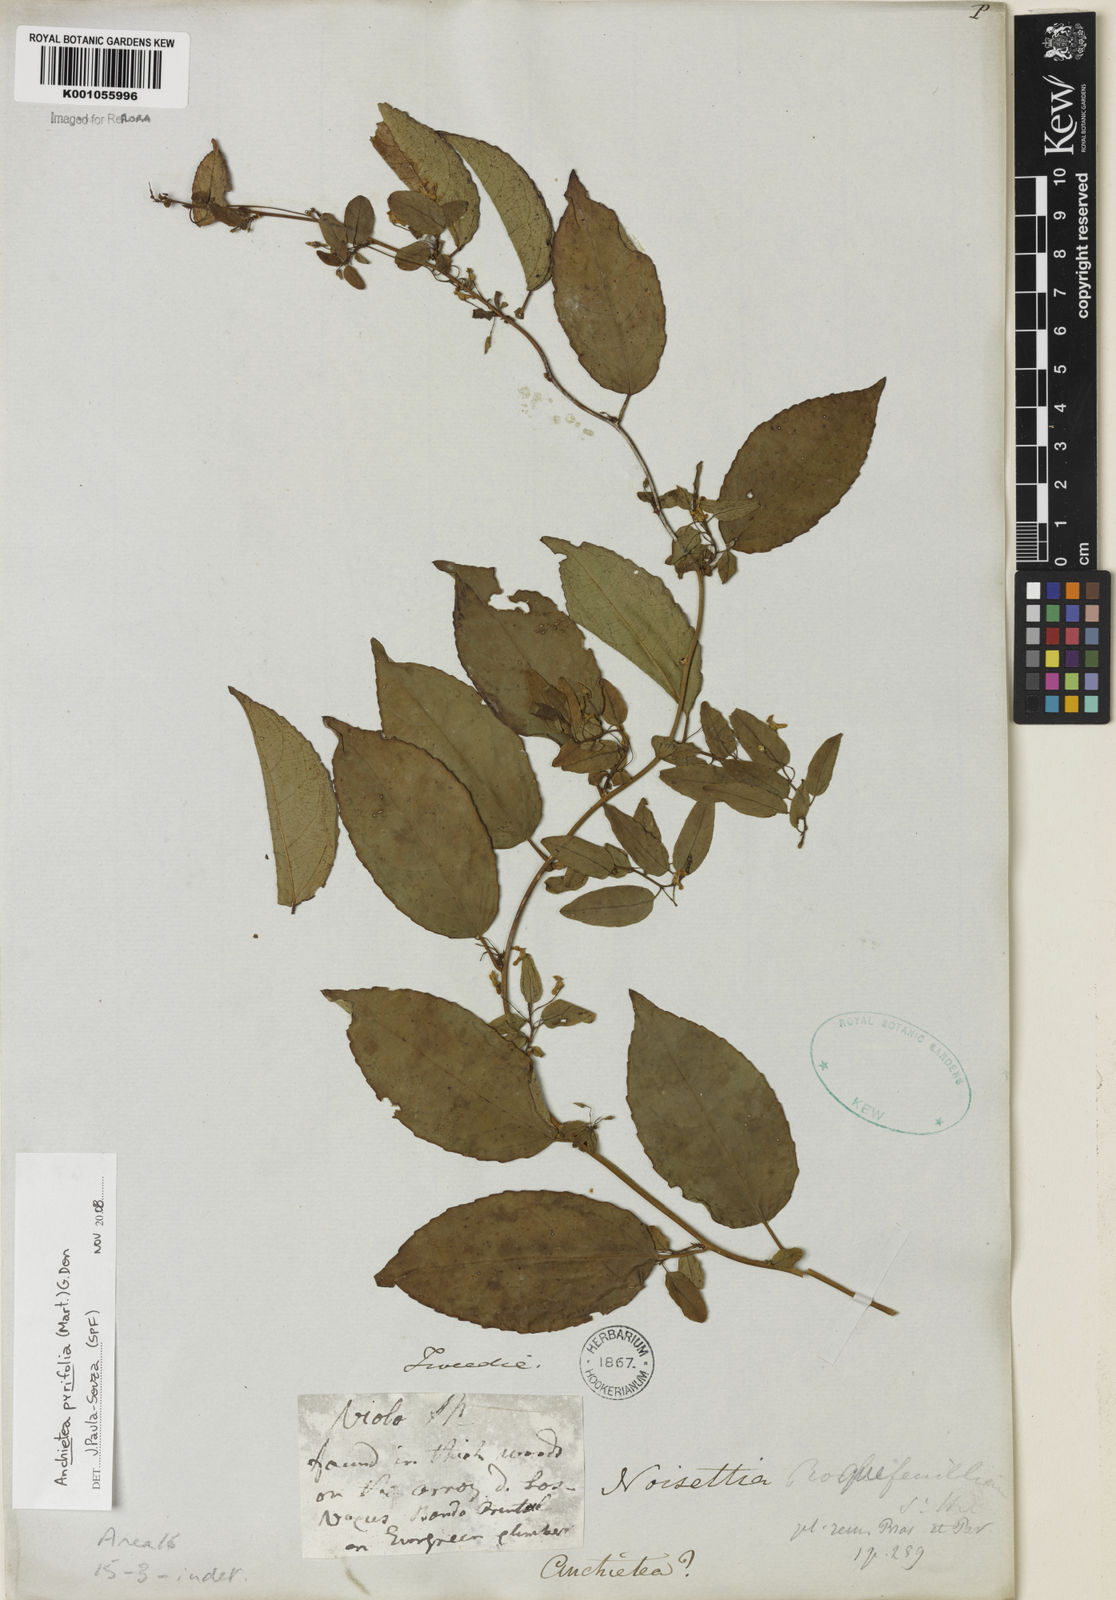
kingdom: Plantae
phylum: Tracheophyta
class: Magnoliopsida
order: Malpighiales
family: Violaceae
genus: Anchietea
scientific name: Anchietea pyrifolia
